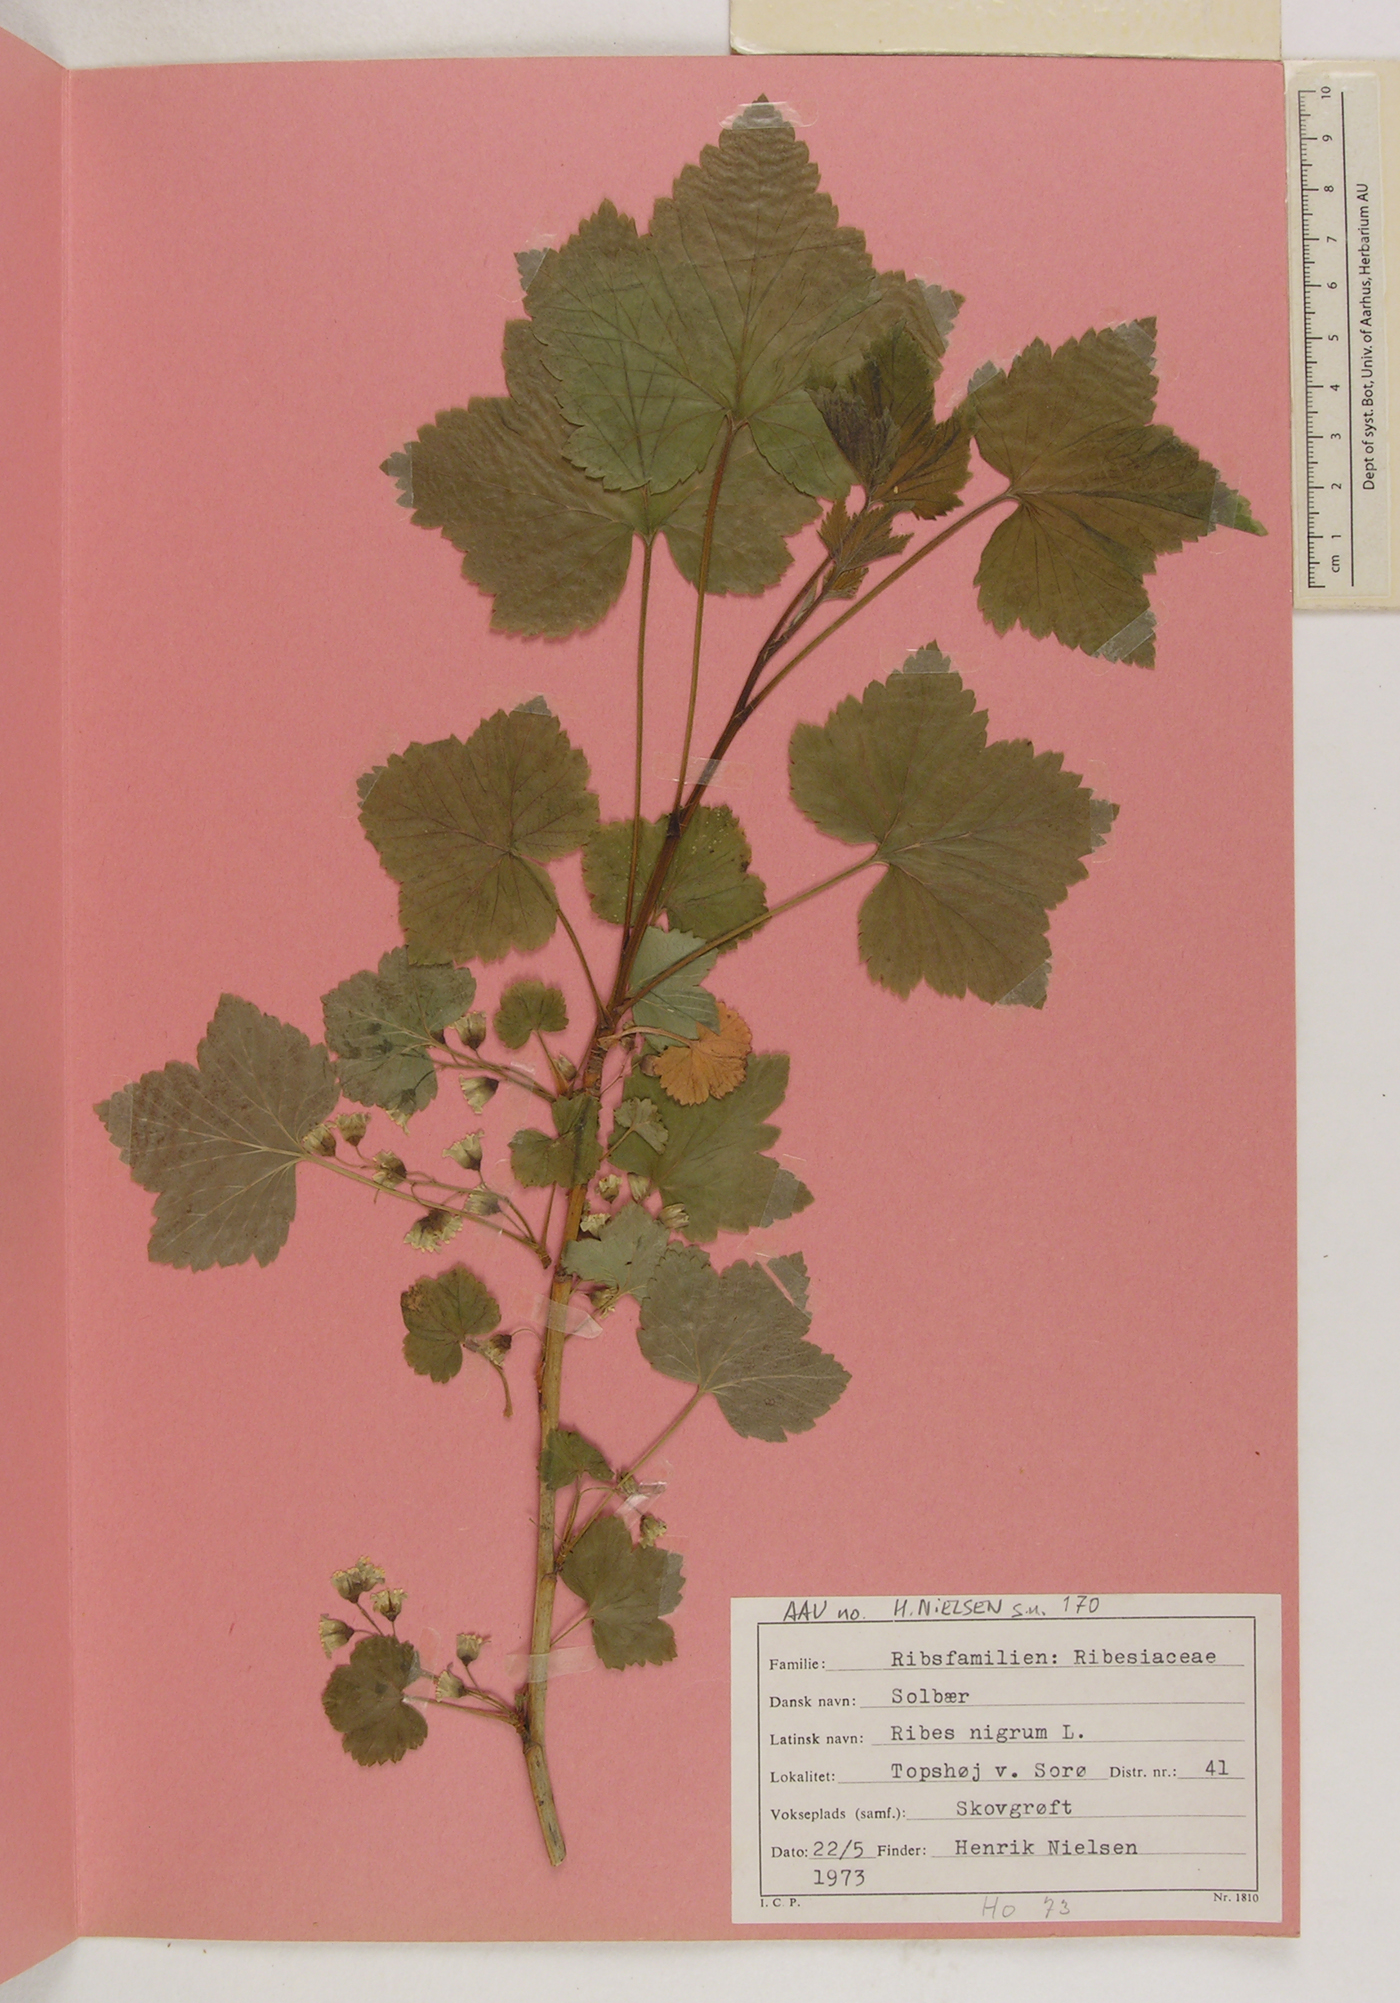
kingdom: Plantae
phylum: Tracheophyta
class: Magnoliopsida
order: Saxifragales
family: Grossulariaceae
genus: Ribes
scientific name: Ribes nigrum
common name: Black currant
